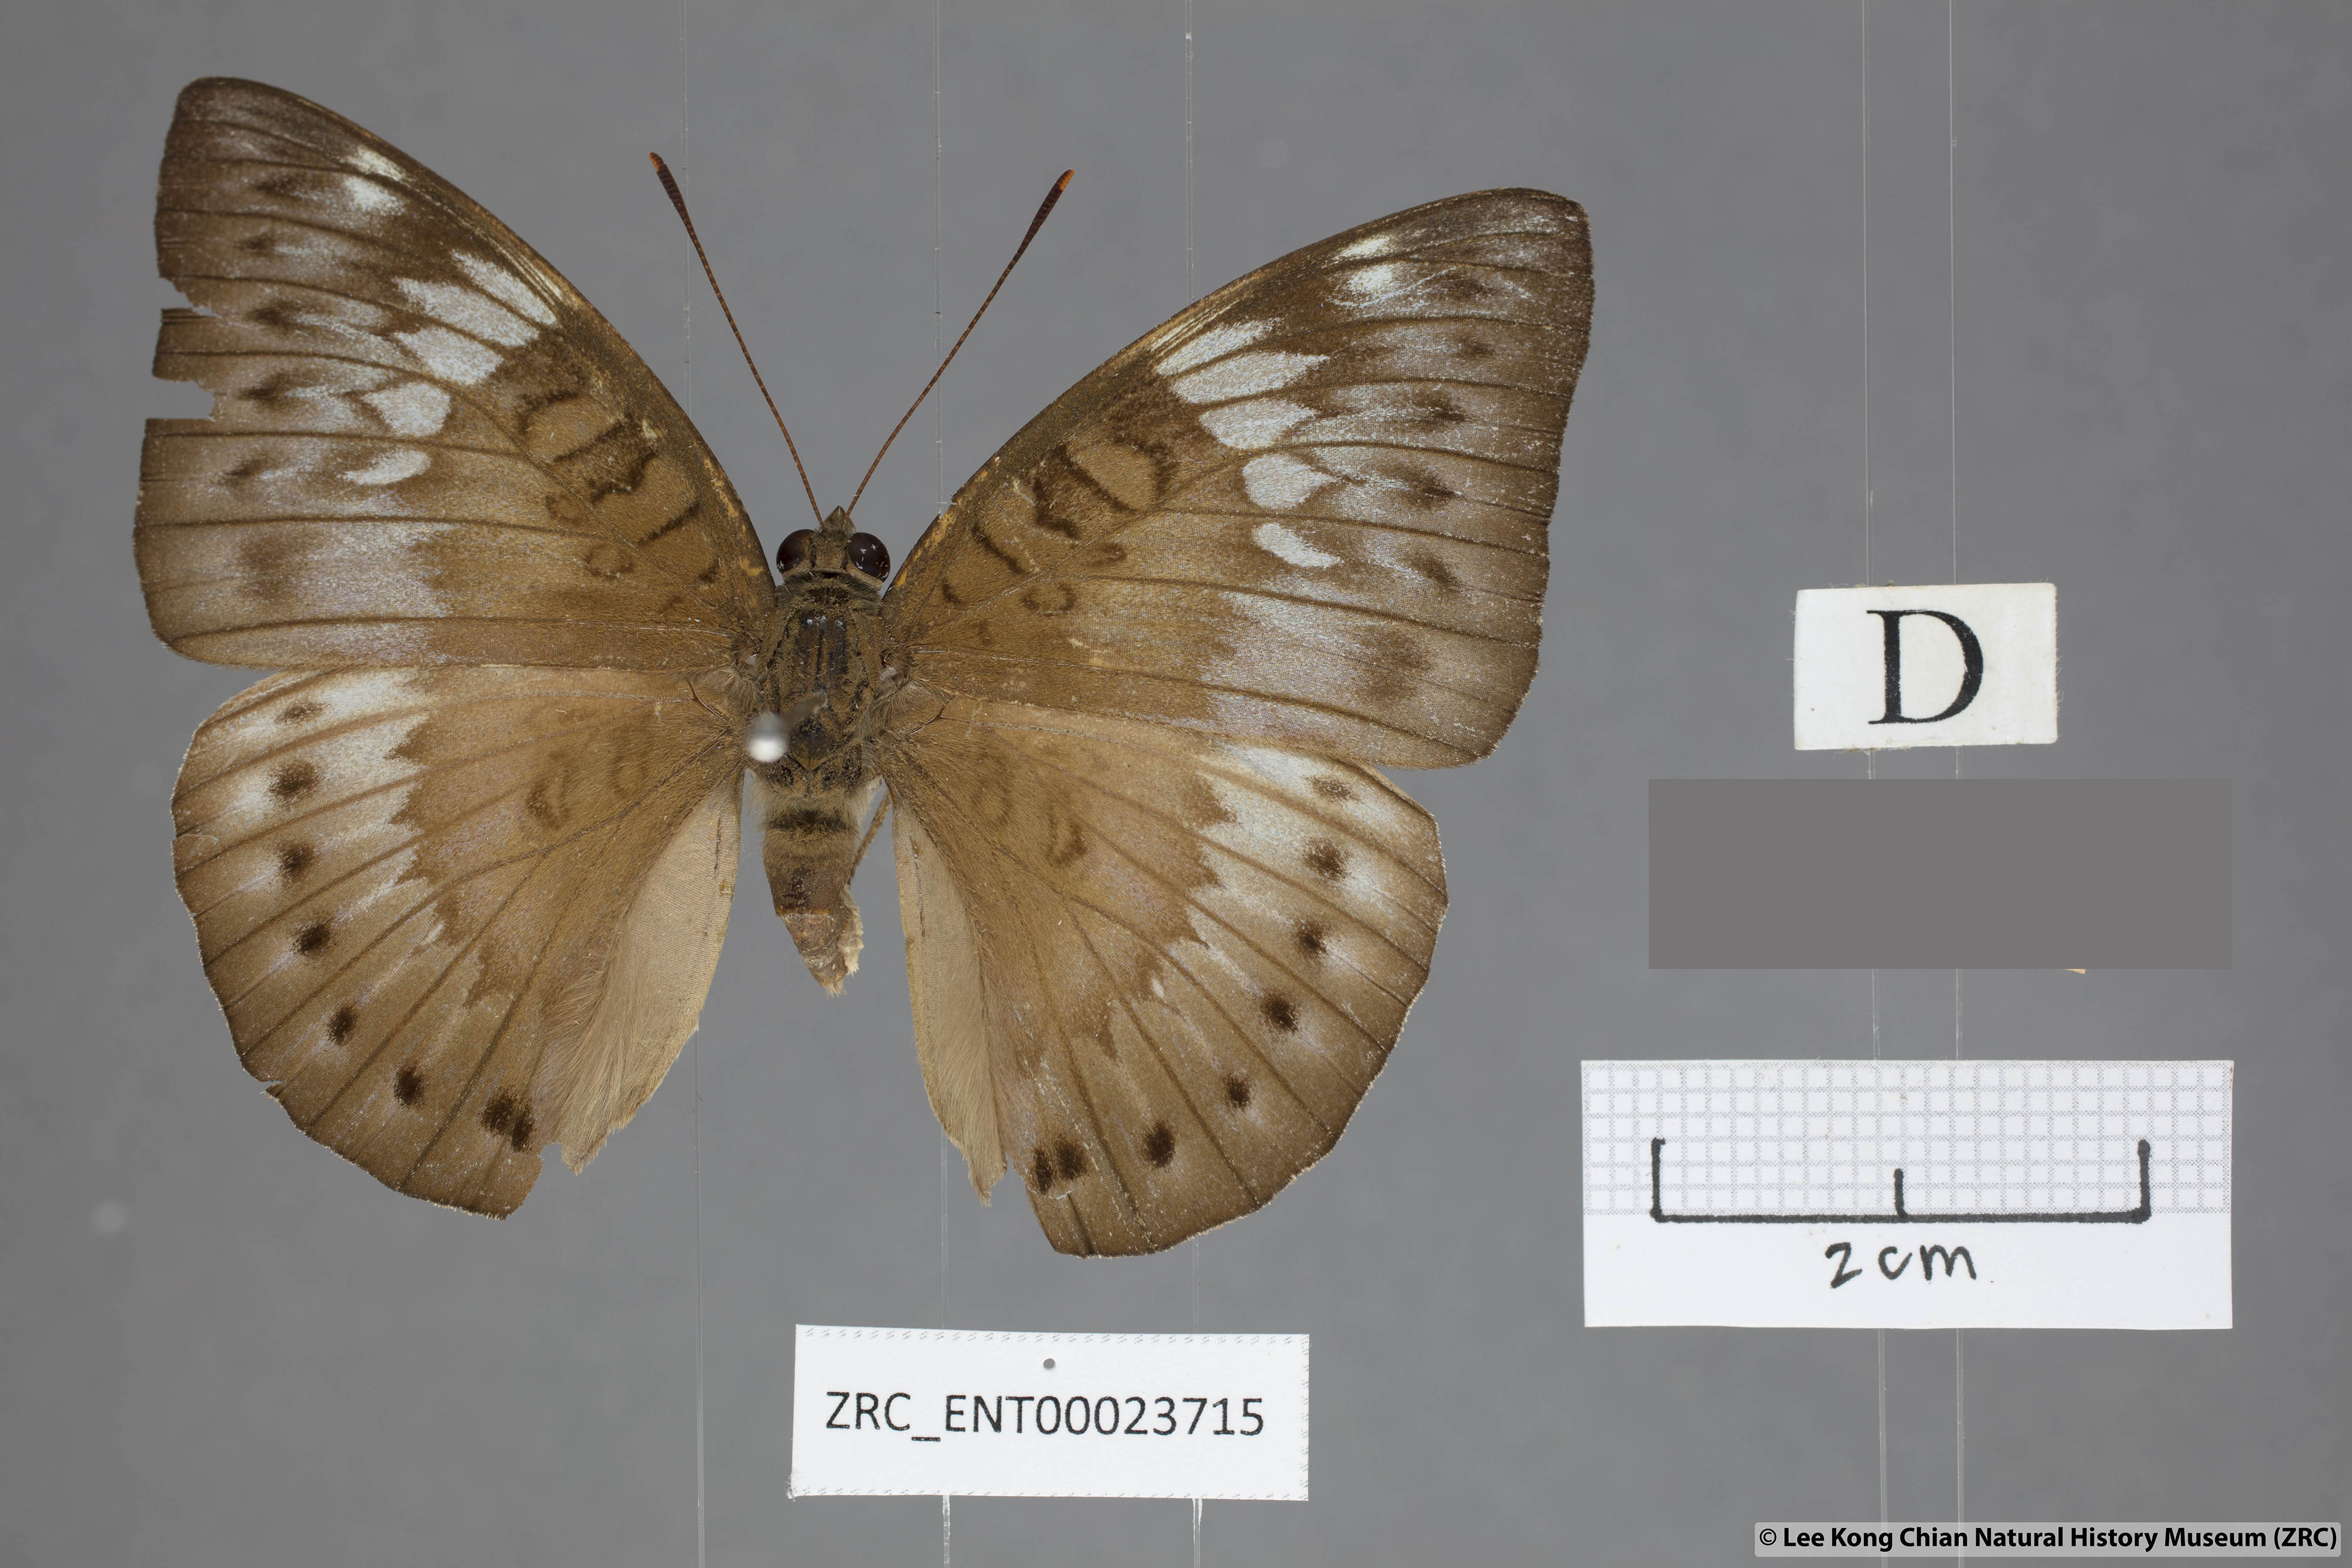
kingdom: Animalia
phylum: Arthropoda
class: Insecta
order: Lepidoptera
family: Nymphalidae
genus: Euthalia
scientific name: Euthalia merta
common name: White tipped baron
